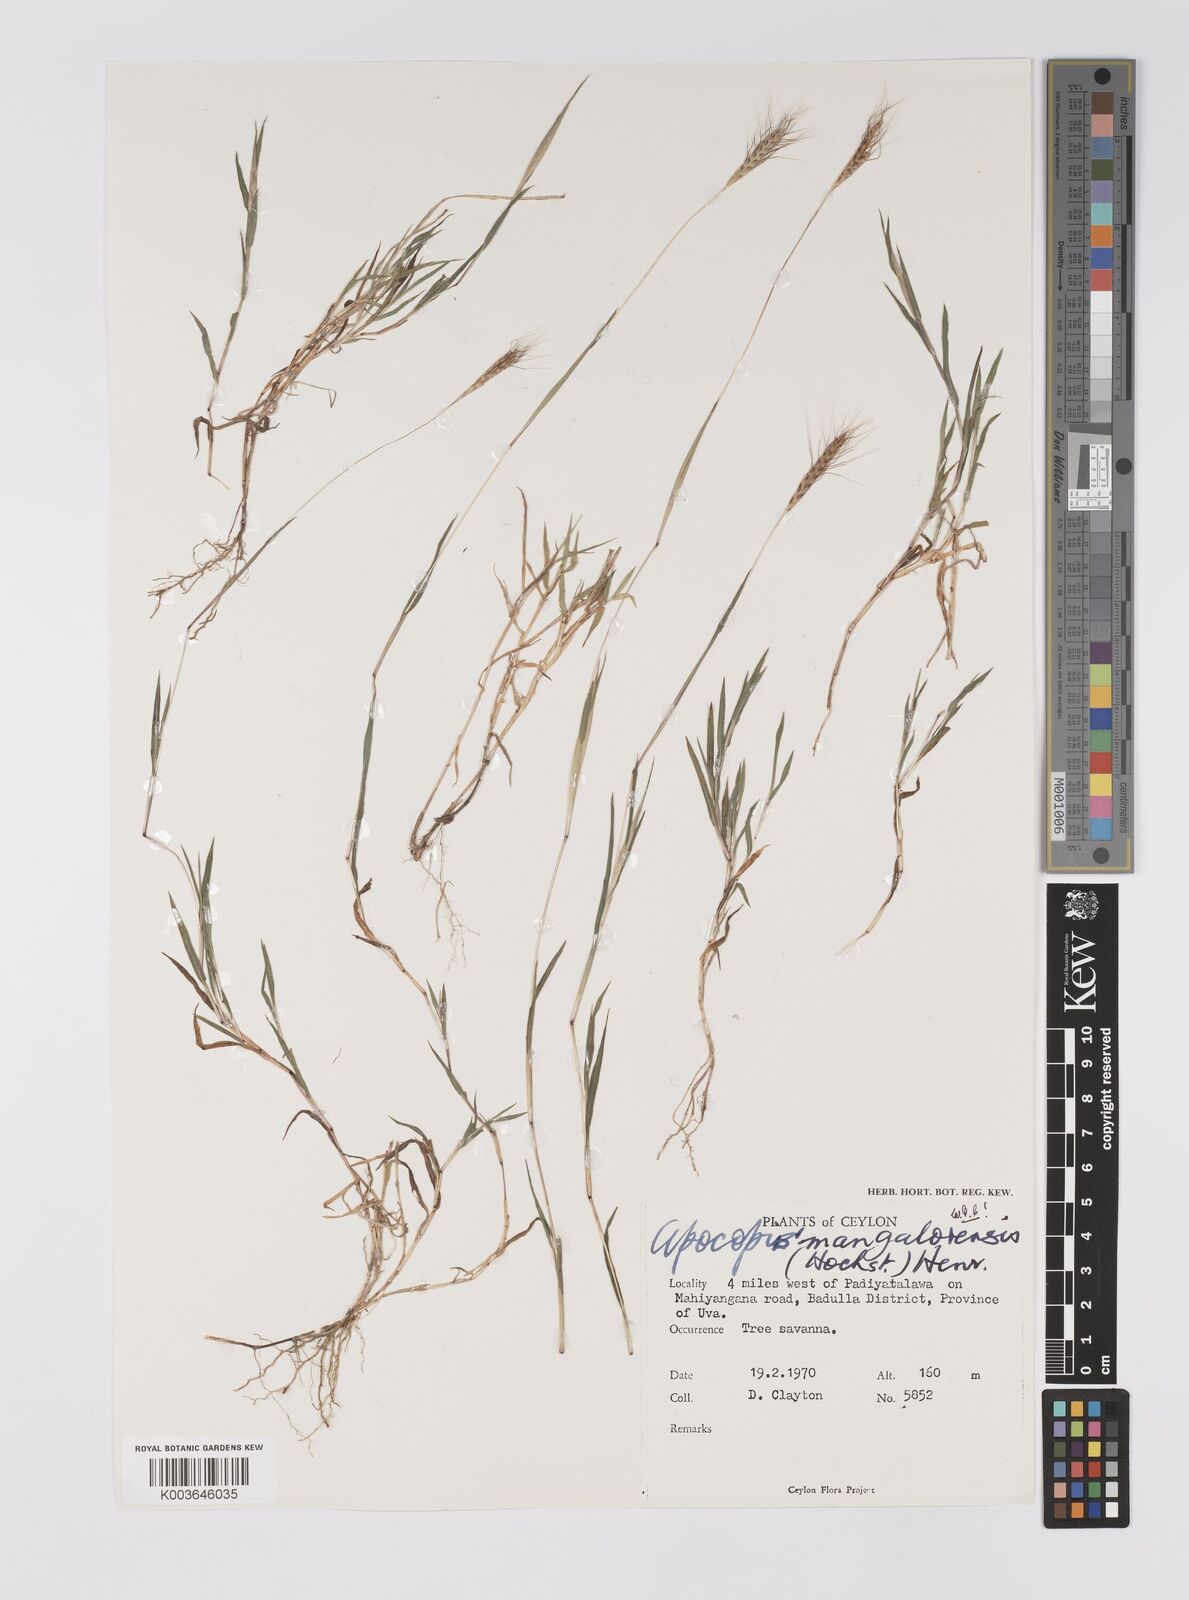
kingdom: Plantae
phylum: Tracheophyta
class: Liliopsida
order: Poales
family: Poaceae
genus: Apocopis
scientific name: Apocopis mangalorensis
